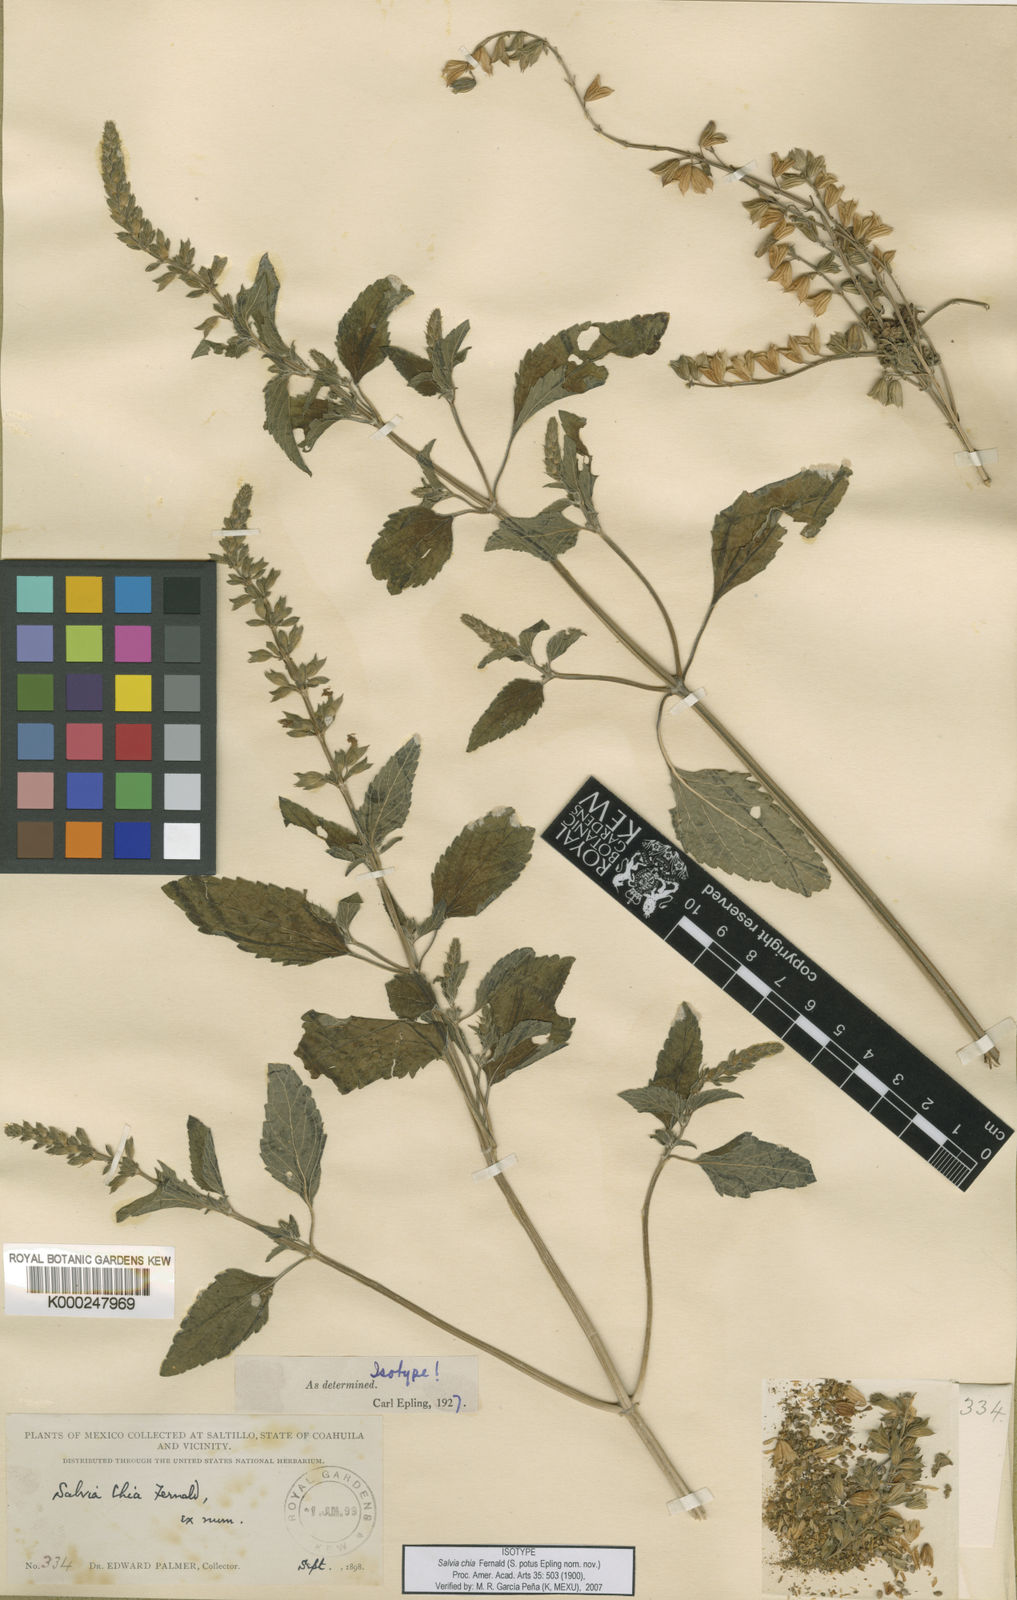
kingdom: Plantae
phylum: Tracheophyta
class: Magnoliopsida
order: Lamiales
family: Lamiaceae
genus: Salvia
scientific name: Salvia
